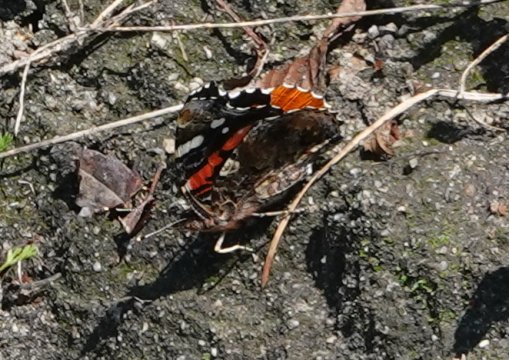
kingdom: Animalia
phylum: Arthropoda
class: Insecta
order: Lepidoptera
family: Nymphalidae
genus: Vanessa
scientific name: Vanessa atalanta
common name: Red Admiral
